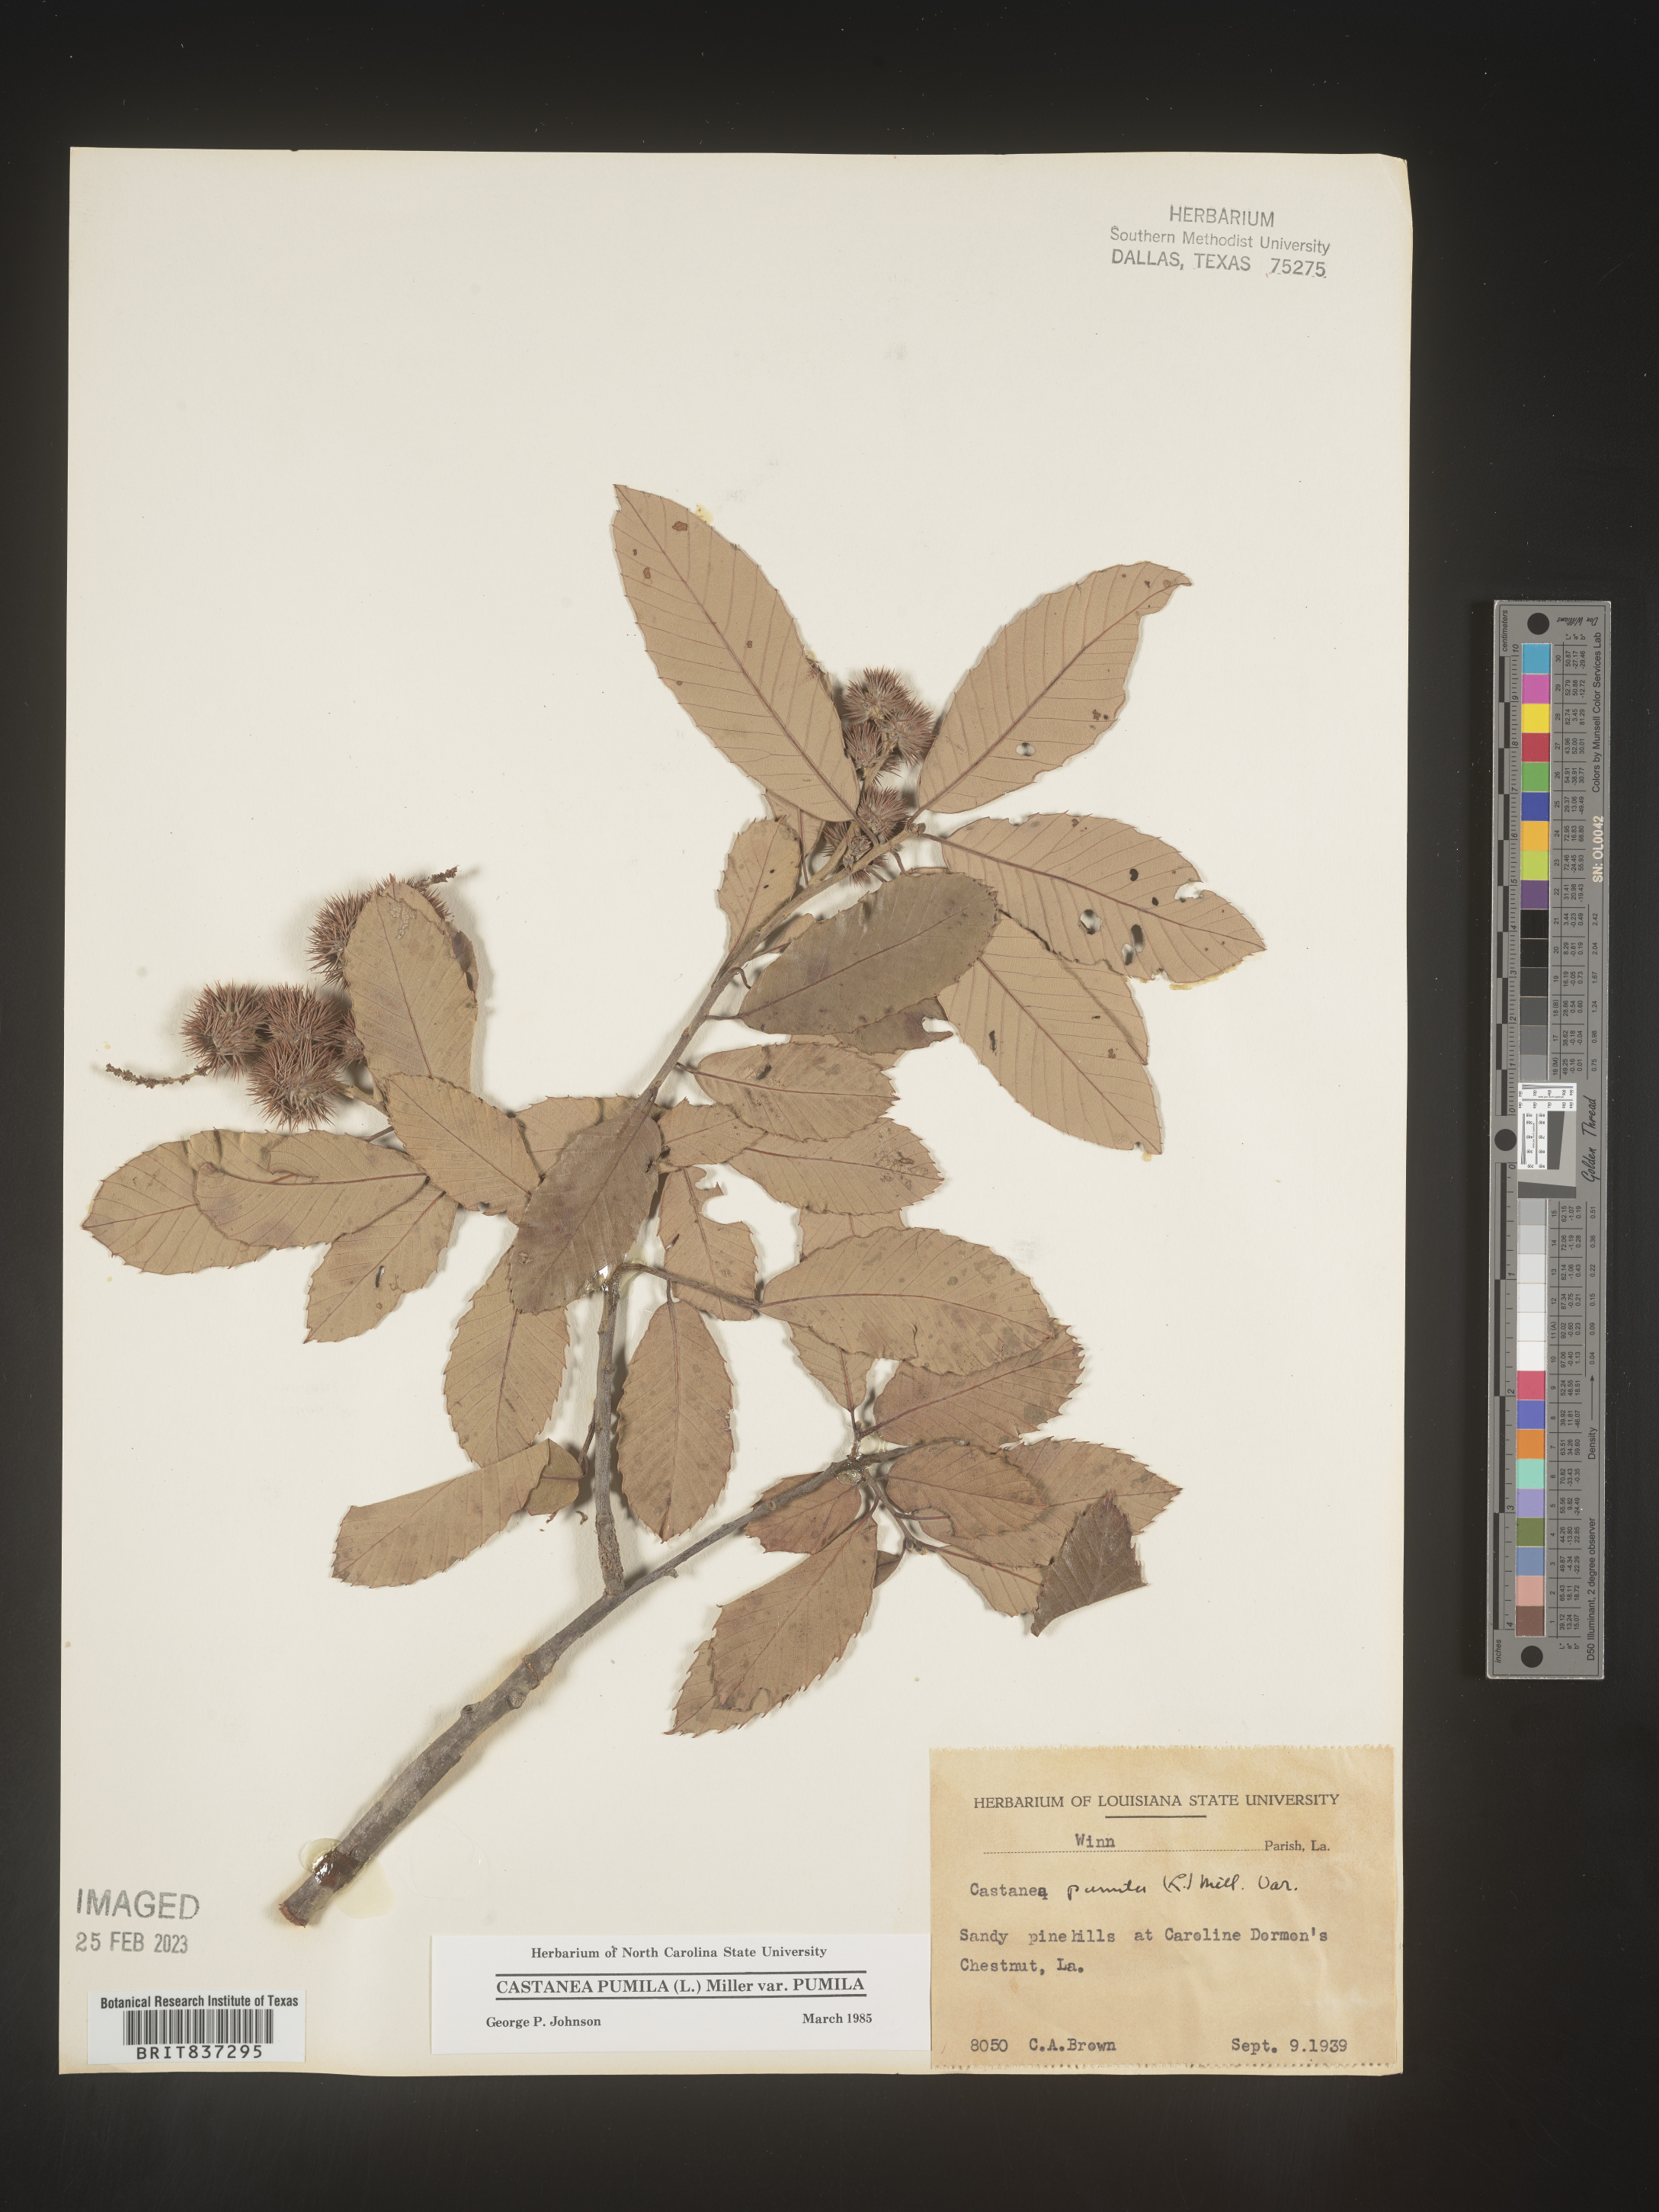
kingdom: Plantae
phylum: Tracheophyta
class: Magnoliopsida
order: Fagales
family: Fagaceae
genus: Castanea
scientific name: Castanea pumila
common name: Chinkapin
